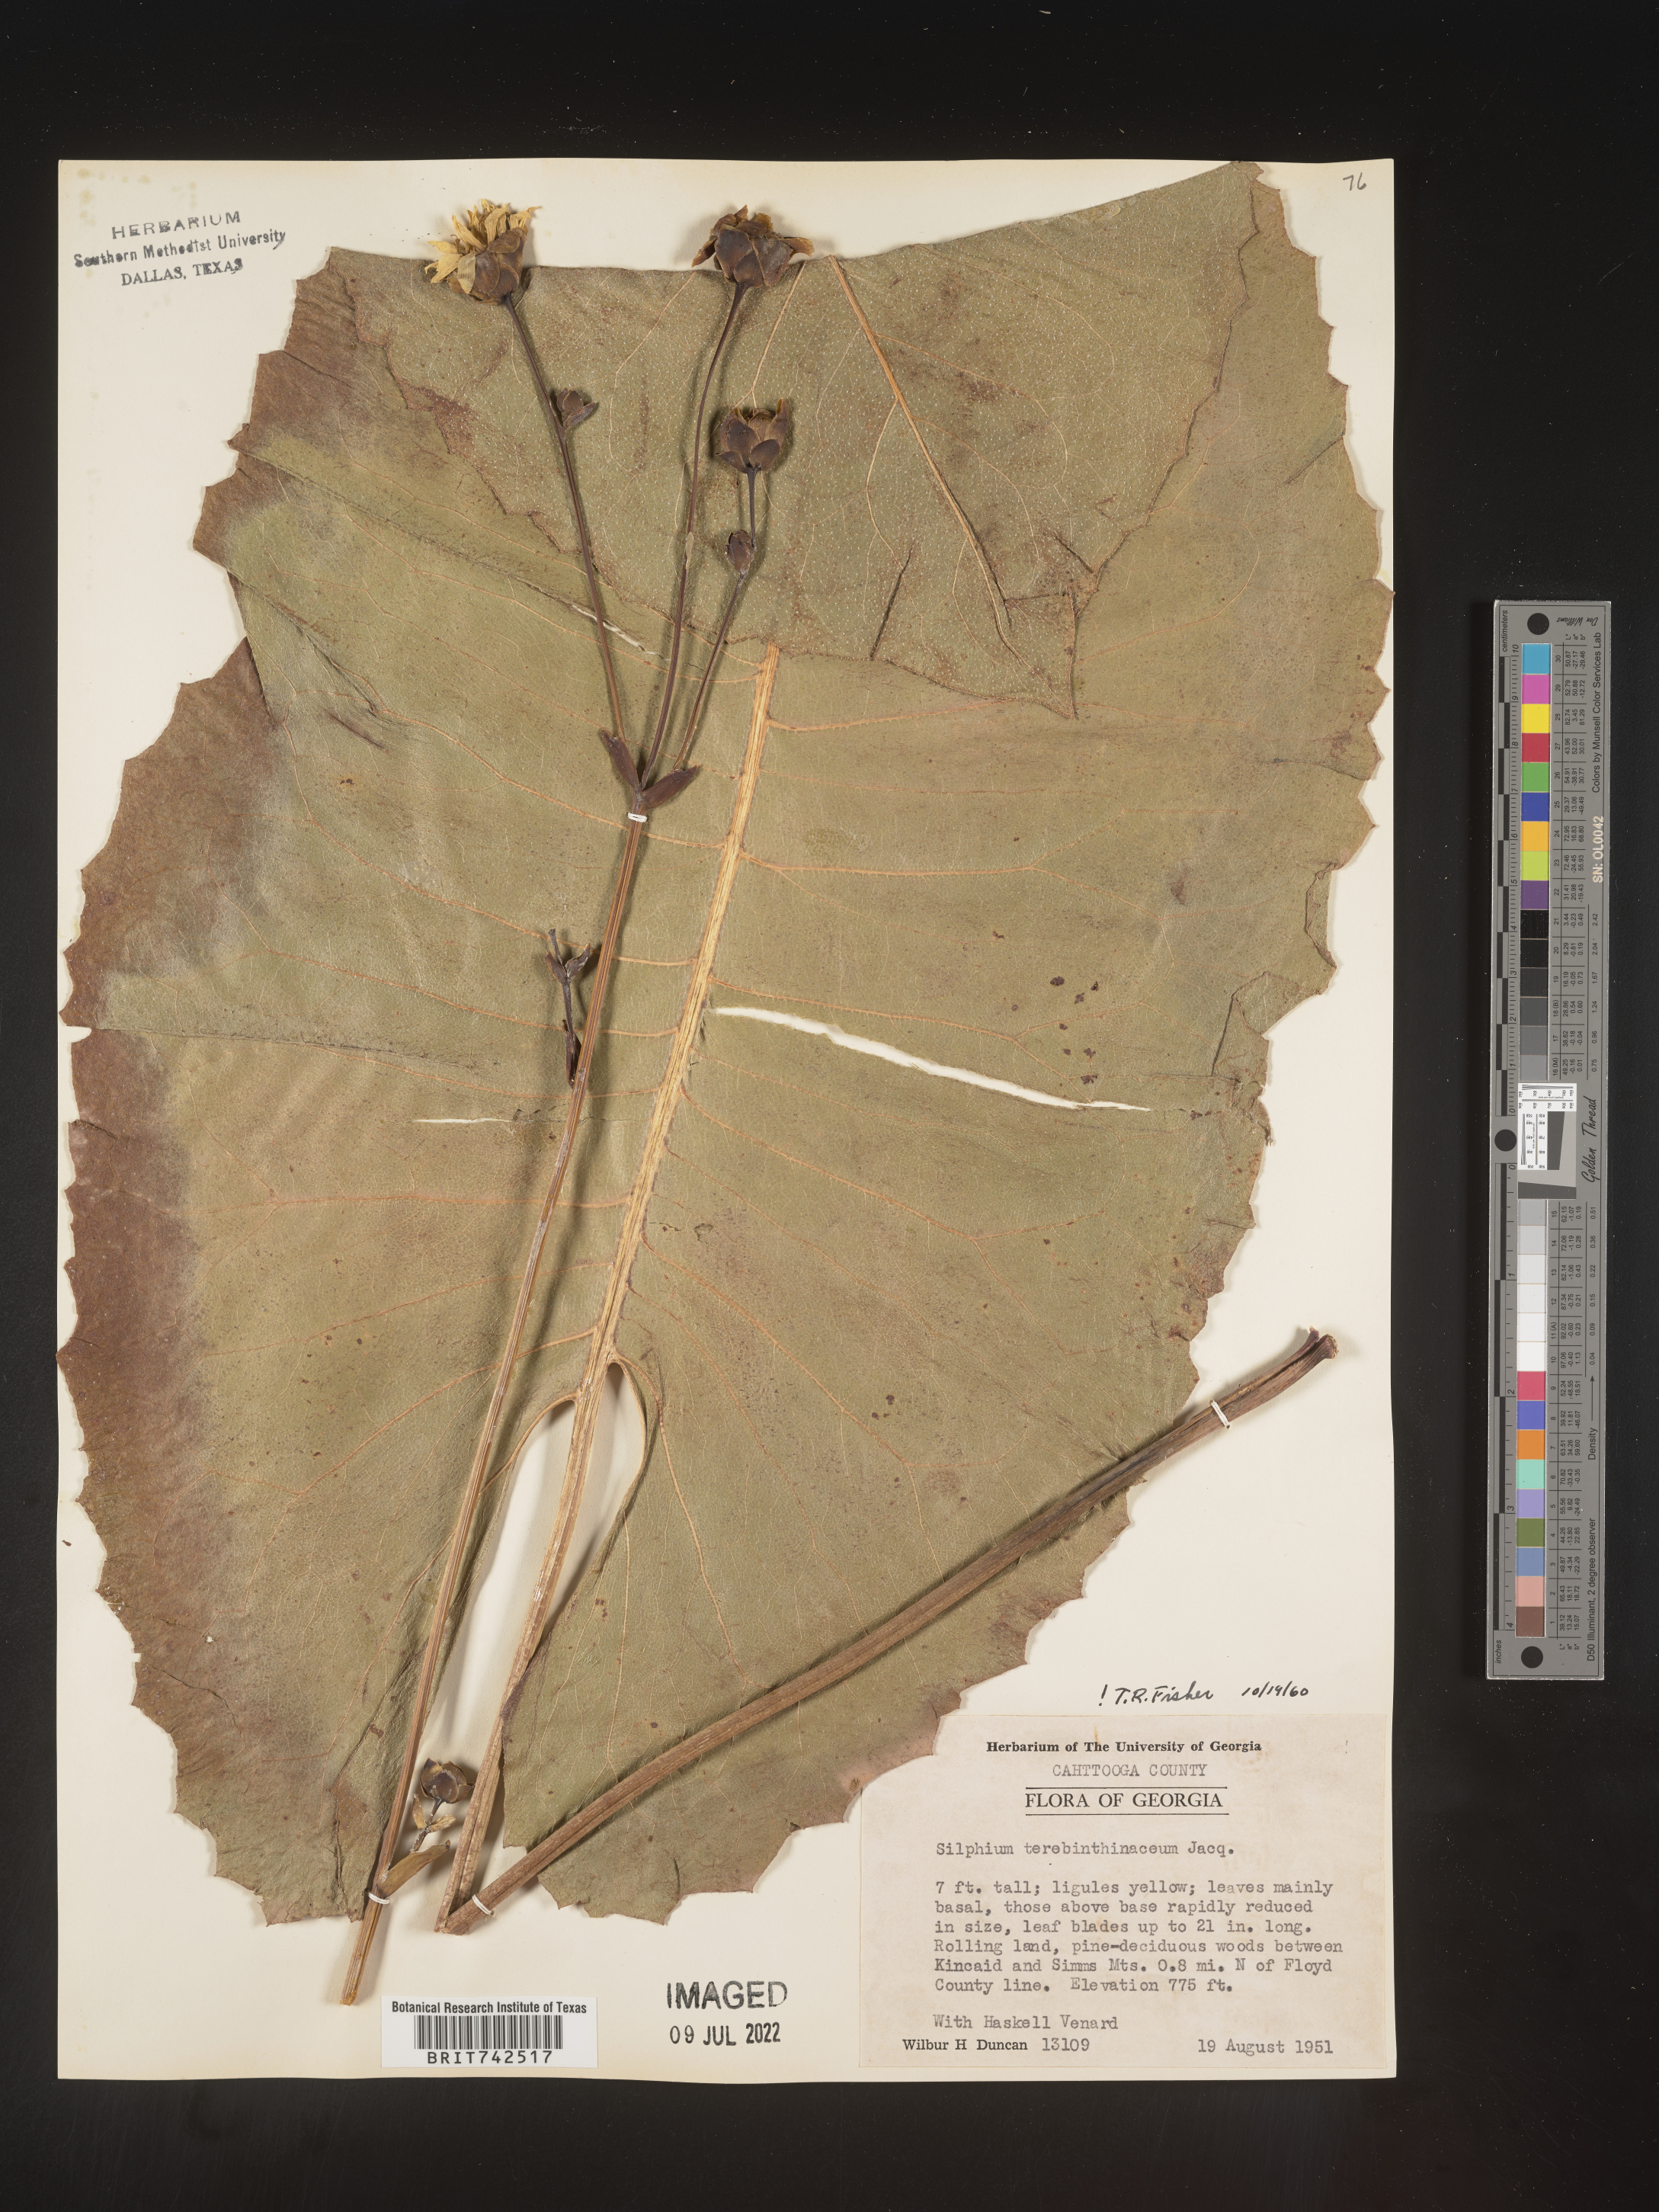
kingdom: Plantae
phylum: Tracheophyta
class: Magnoliopsida
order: Asterales
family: Asteraceae
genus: Silphium
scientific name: Silphium terebinthinaceum
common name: Basal-leaf rosinweed
